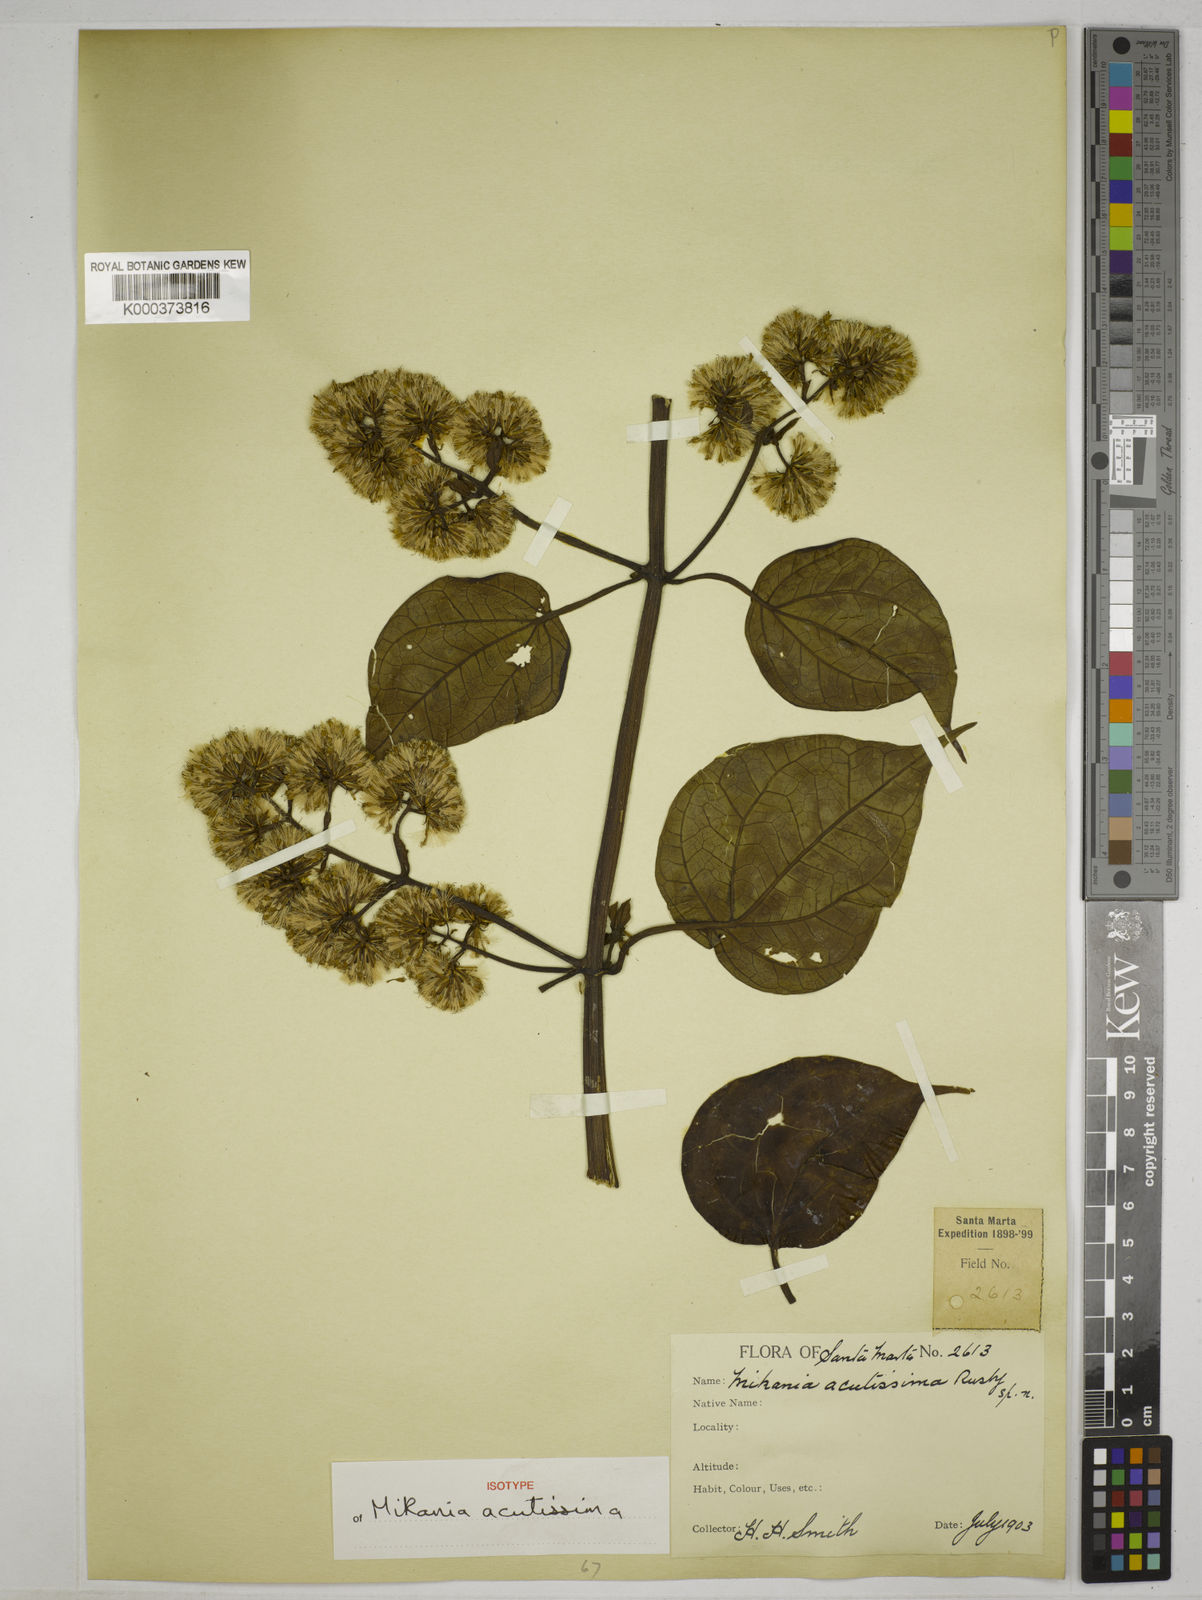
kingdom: Plantae
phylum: Tracheophyta
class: Magnoliopsida
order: Asterales
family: Asteraceae
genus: Mikania
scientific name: Mikania acutissima
